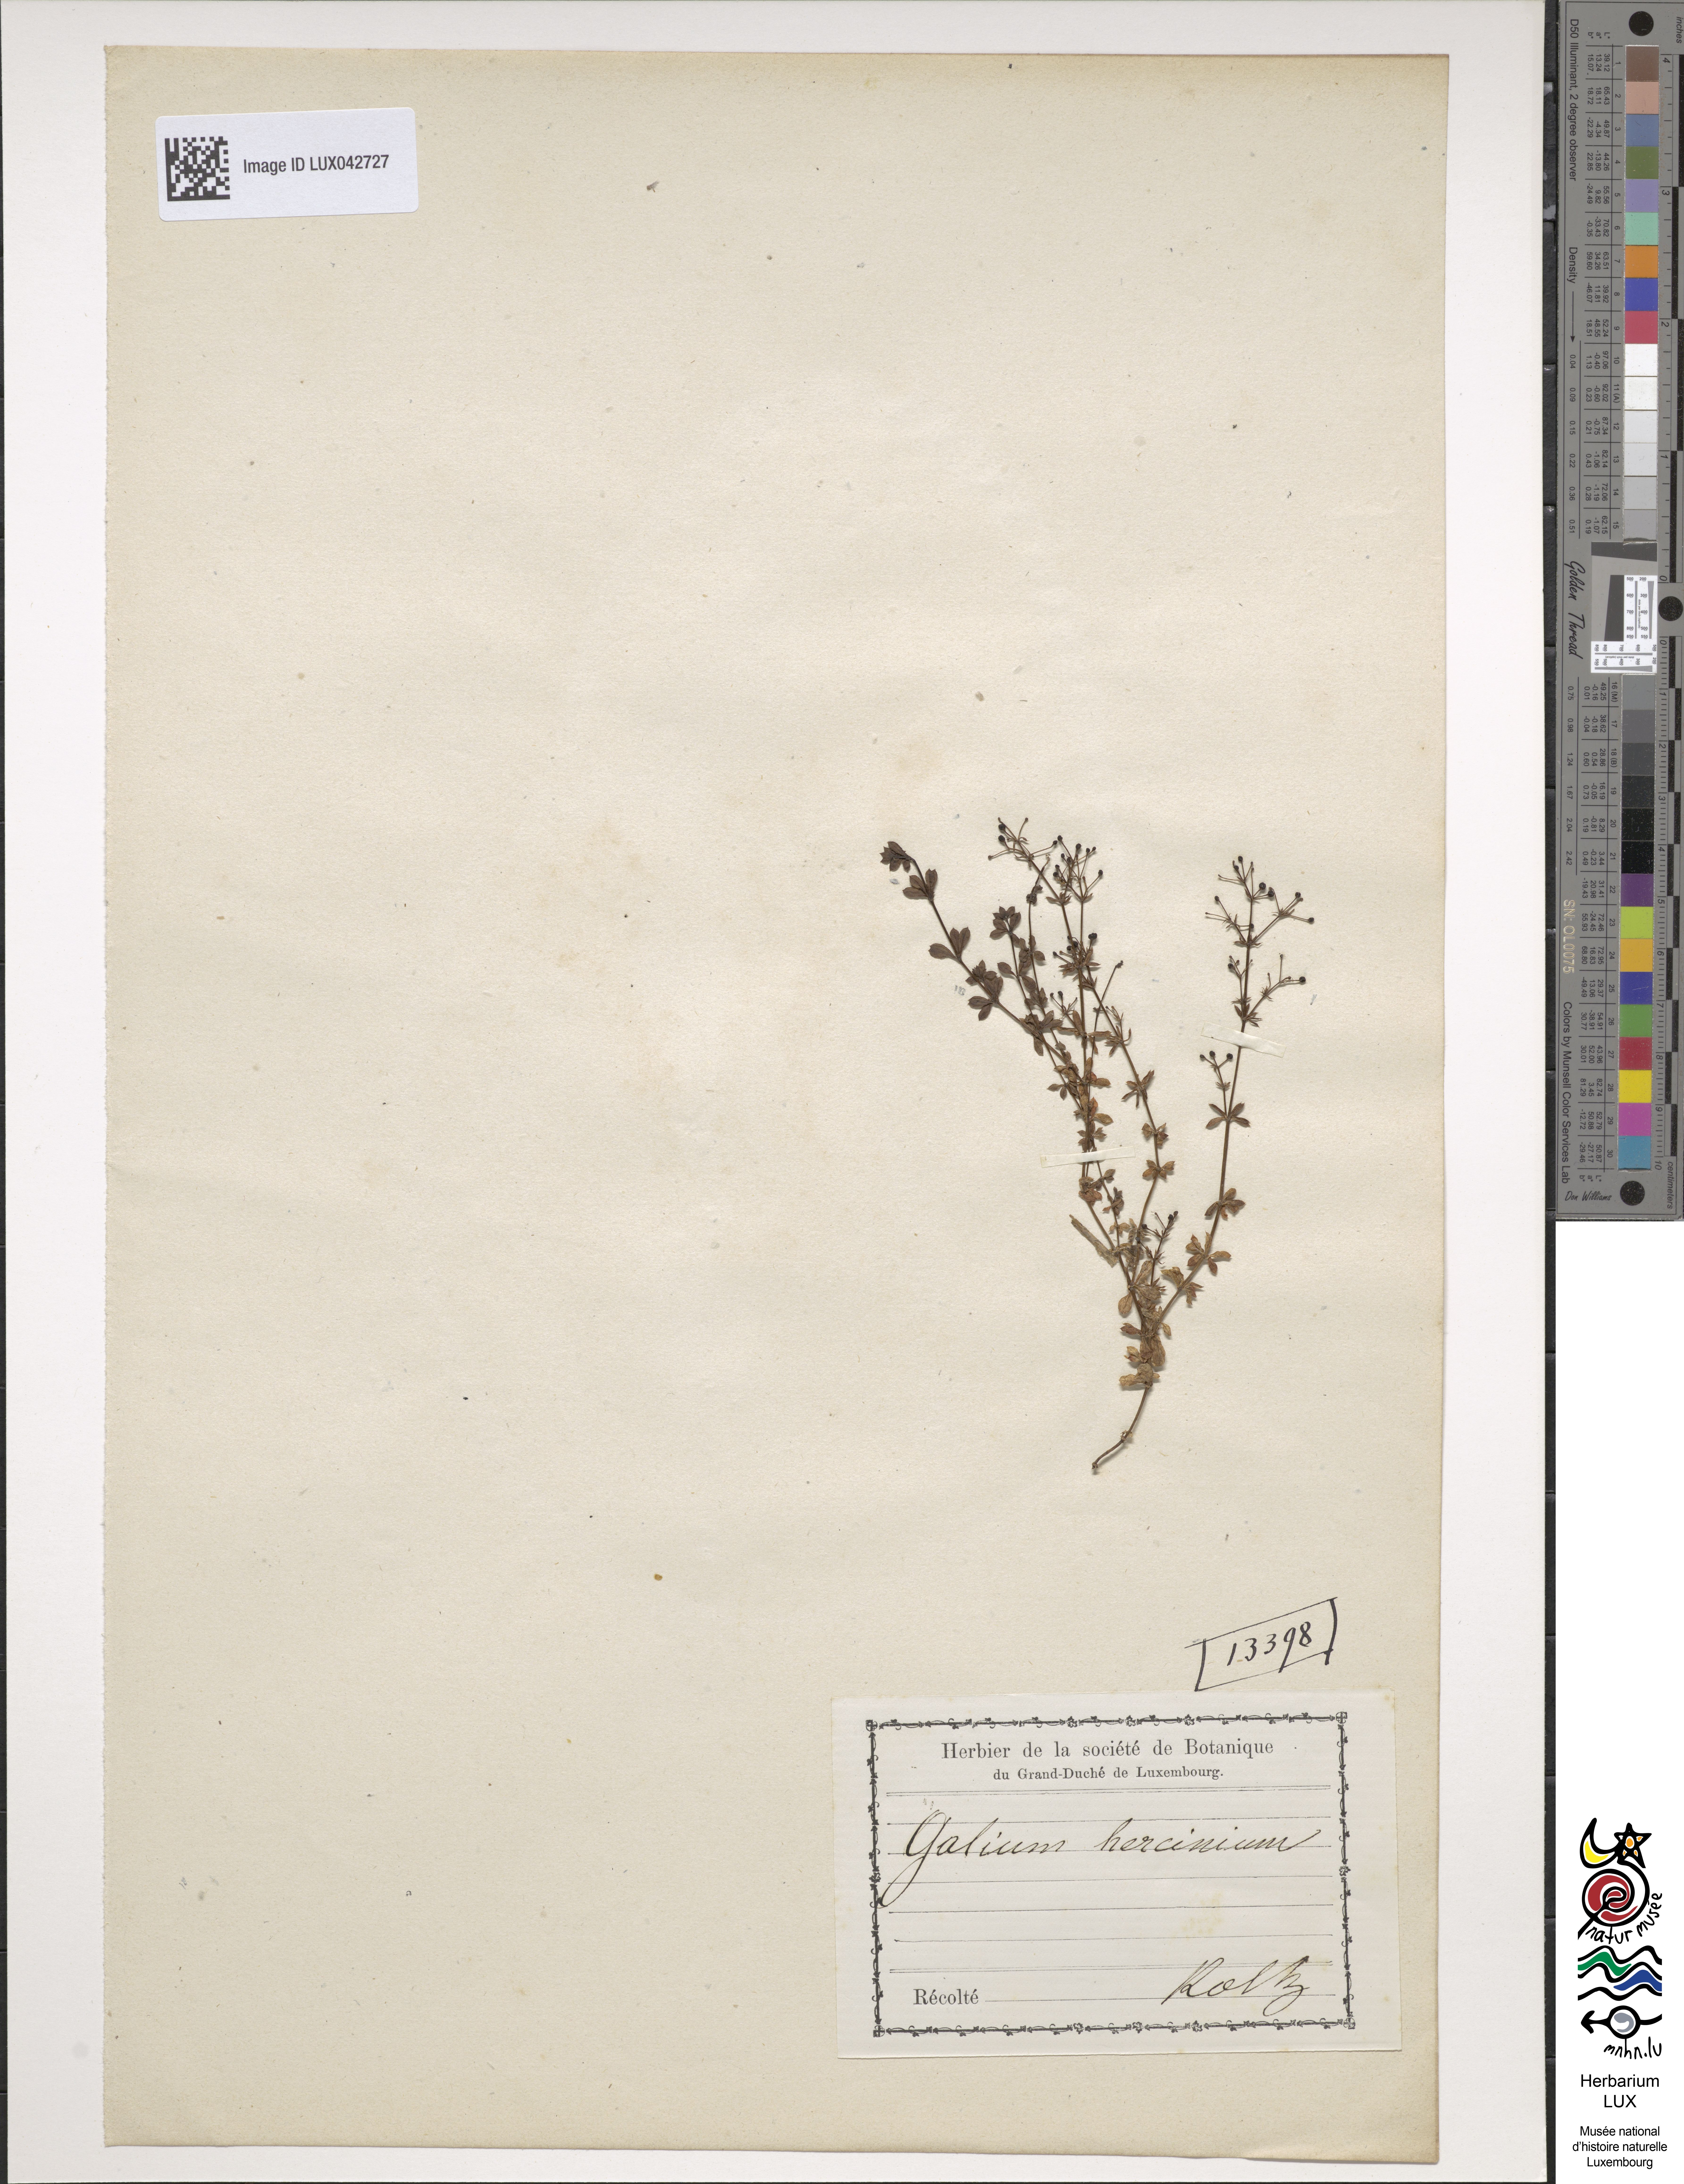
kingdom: Plantae
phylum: Tracheophyta
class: Magnoliopsida
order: Gentianales
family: Rubiaceae
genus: Galium
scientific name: Galium saxatile
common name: Heath bedstraw
